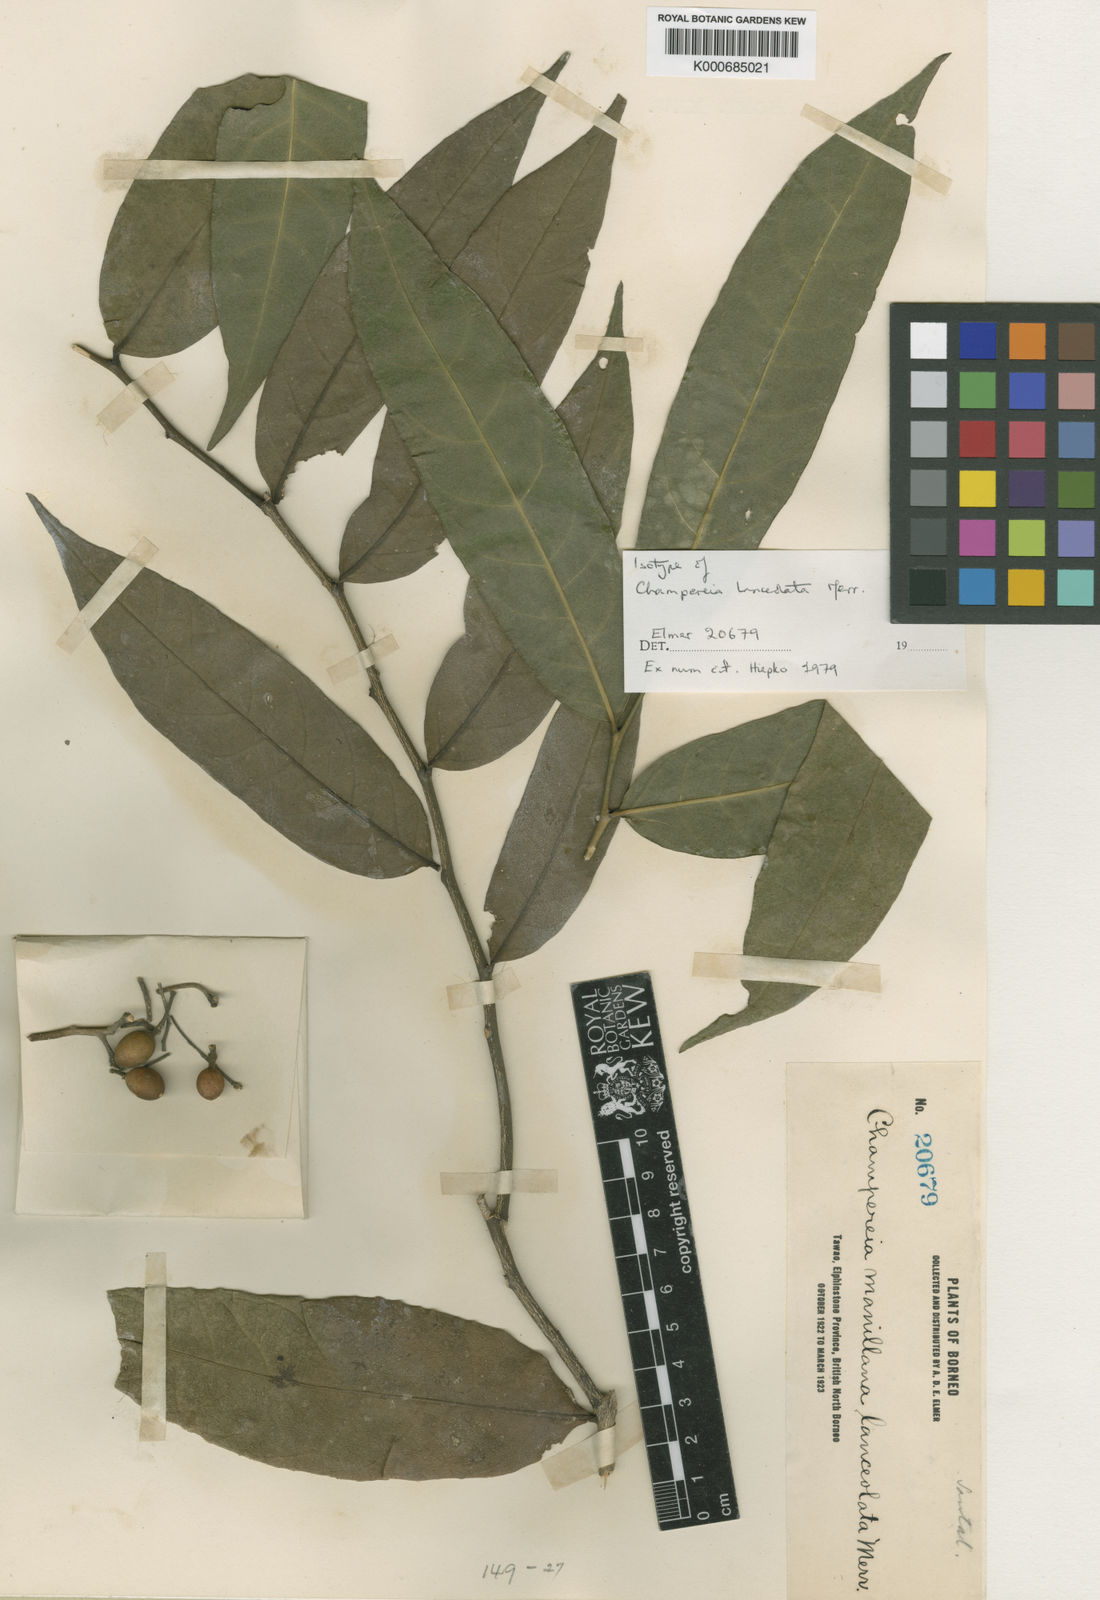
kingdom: Plantae
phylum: Tracheophyta
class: Magnoliopsida
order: Santalales
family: Opiliaceae
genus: Champereia
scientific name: Champereia manillana
